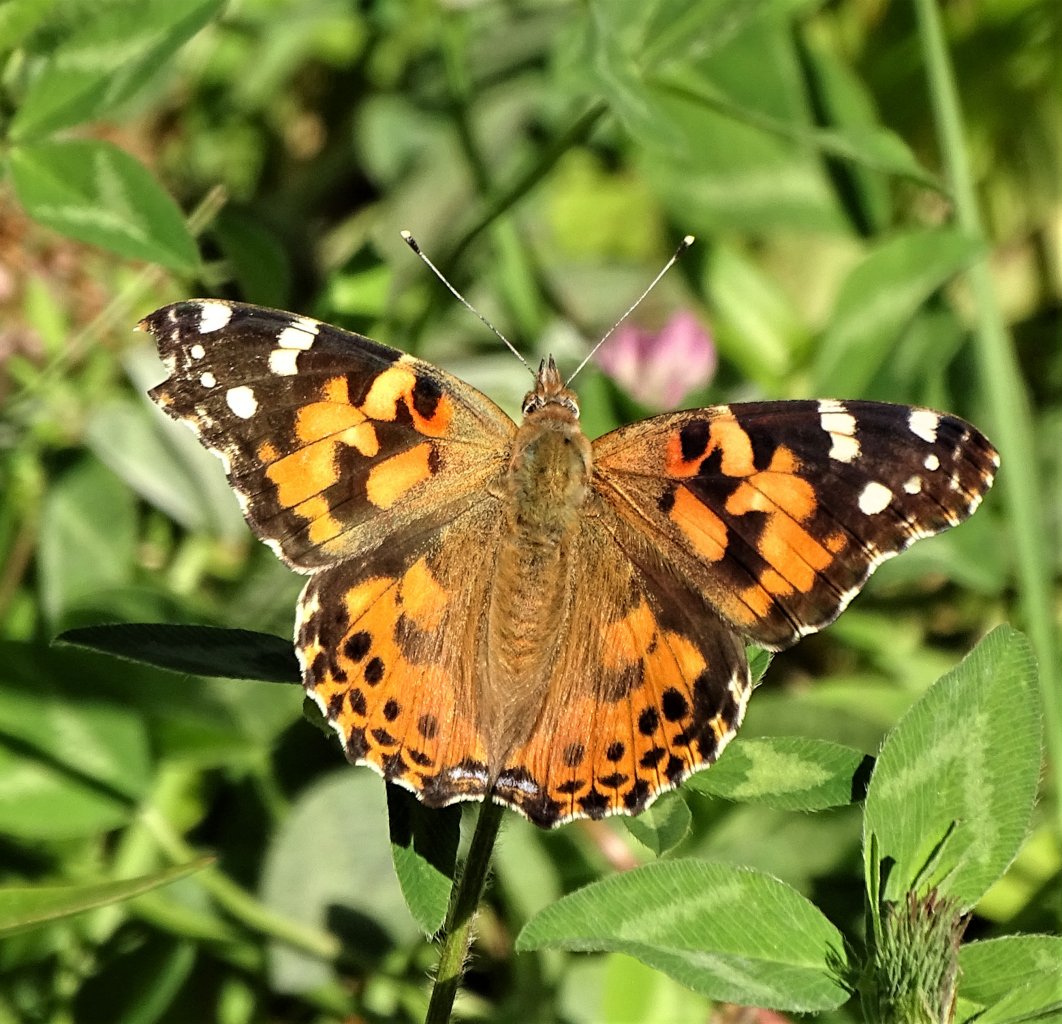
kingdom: Animalia
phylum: Arthropoda
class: Insecta
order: Lepidoptera
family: Nymphalidae
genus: Vanessa
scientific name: Vanessa cardui
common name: Painted Lady
